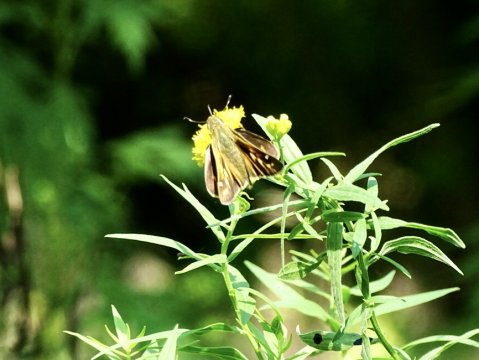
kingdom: Animalia
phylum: Arthropoda
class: Insecta
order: Lepidoptera
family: Hesperiidae
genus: Atalopedes
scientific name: Atalopedes campestris
